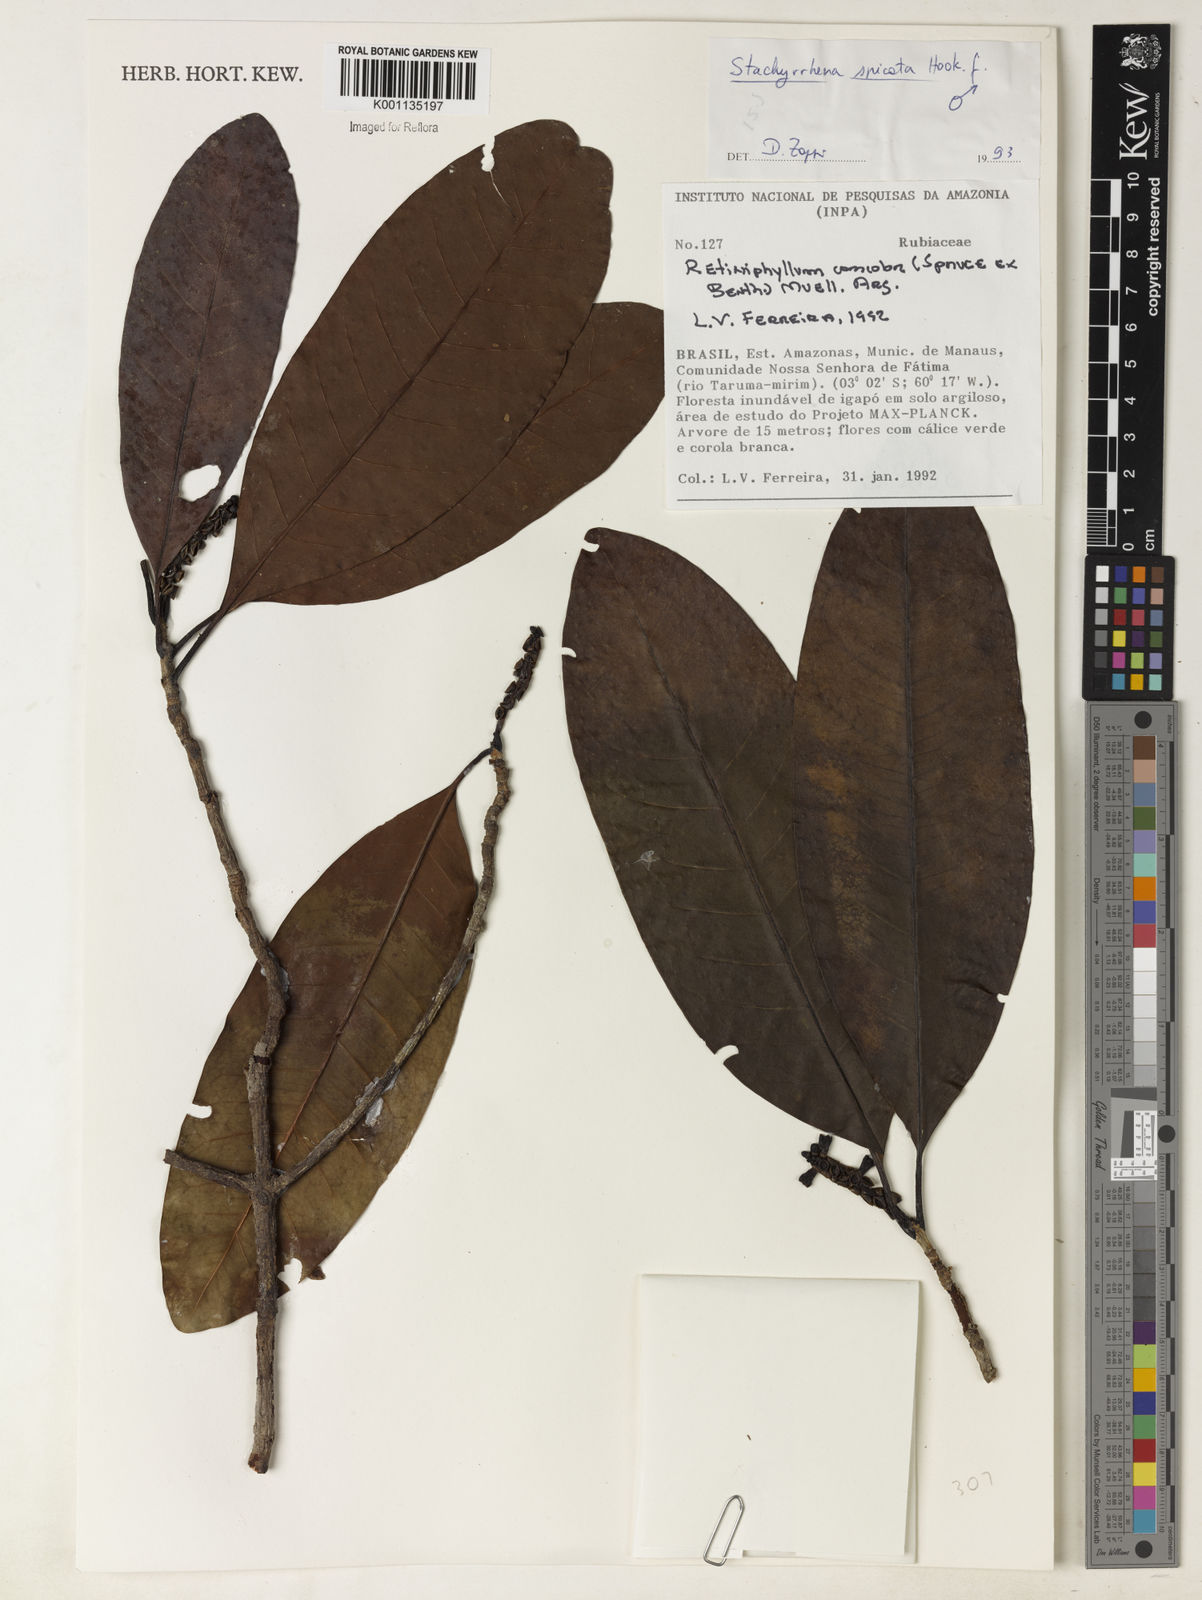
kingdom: Plantae
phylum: Tracheophyta
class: Magnoliopsida
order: Gentianales
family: Rubiaceae
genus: Stachyarrhena
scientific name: Stachyarrhena spicata
